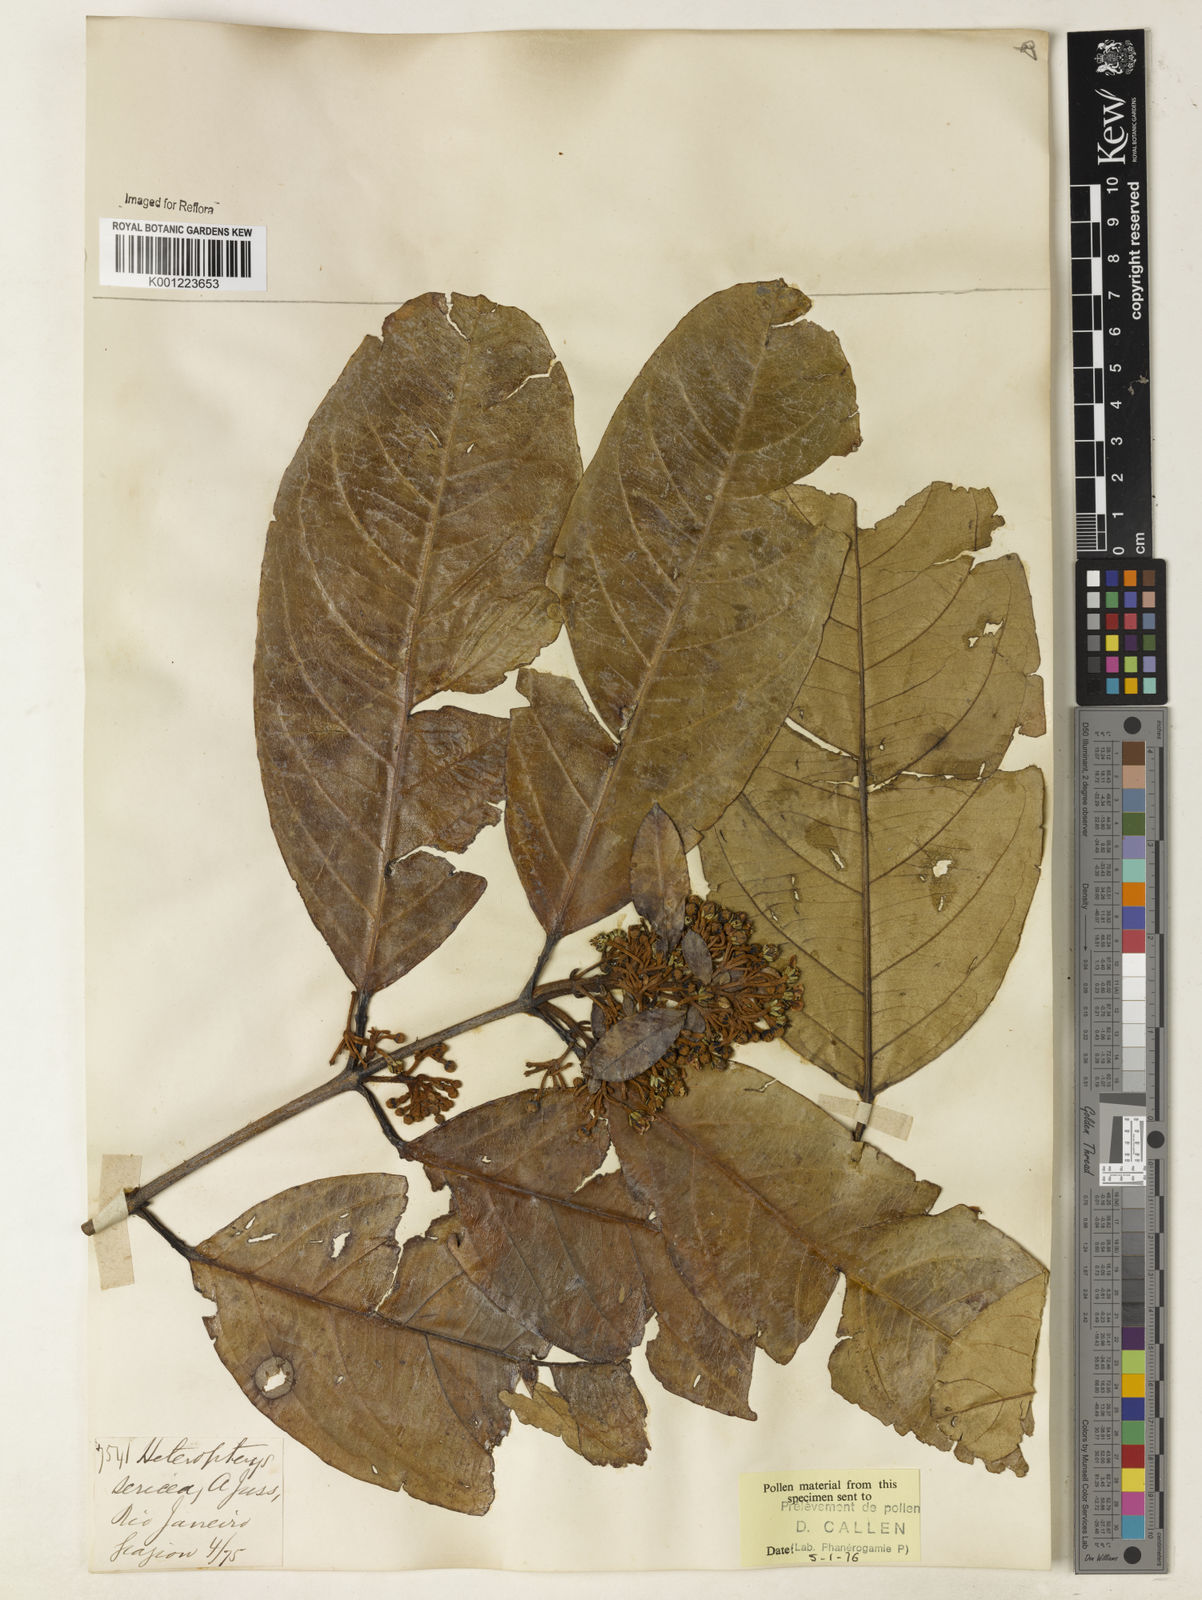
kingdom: Plantae
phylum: Tracheophyta
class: Magnoliopsida
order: Malpighiales
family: Malpighiaceae
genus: Heteropterys
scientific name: Heteropterys sericea
